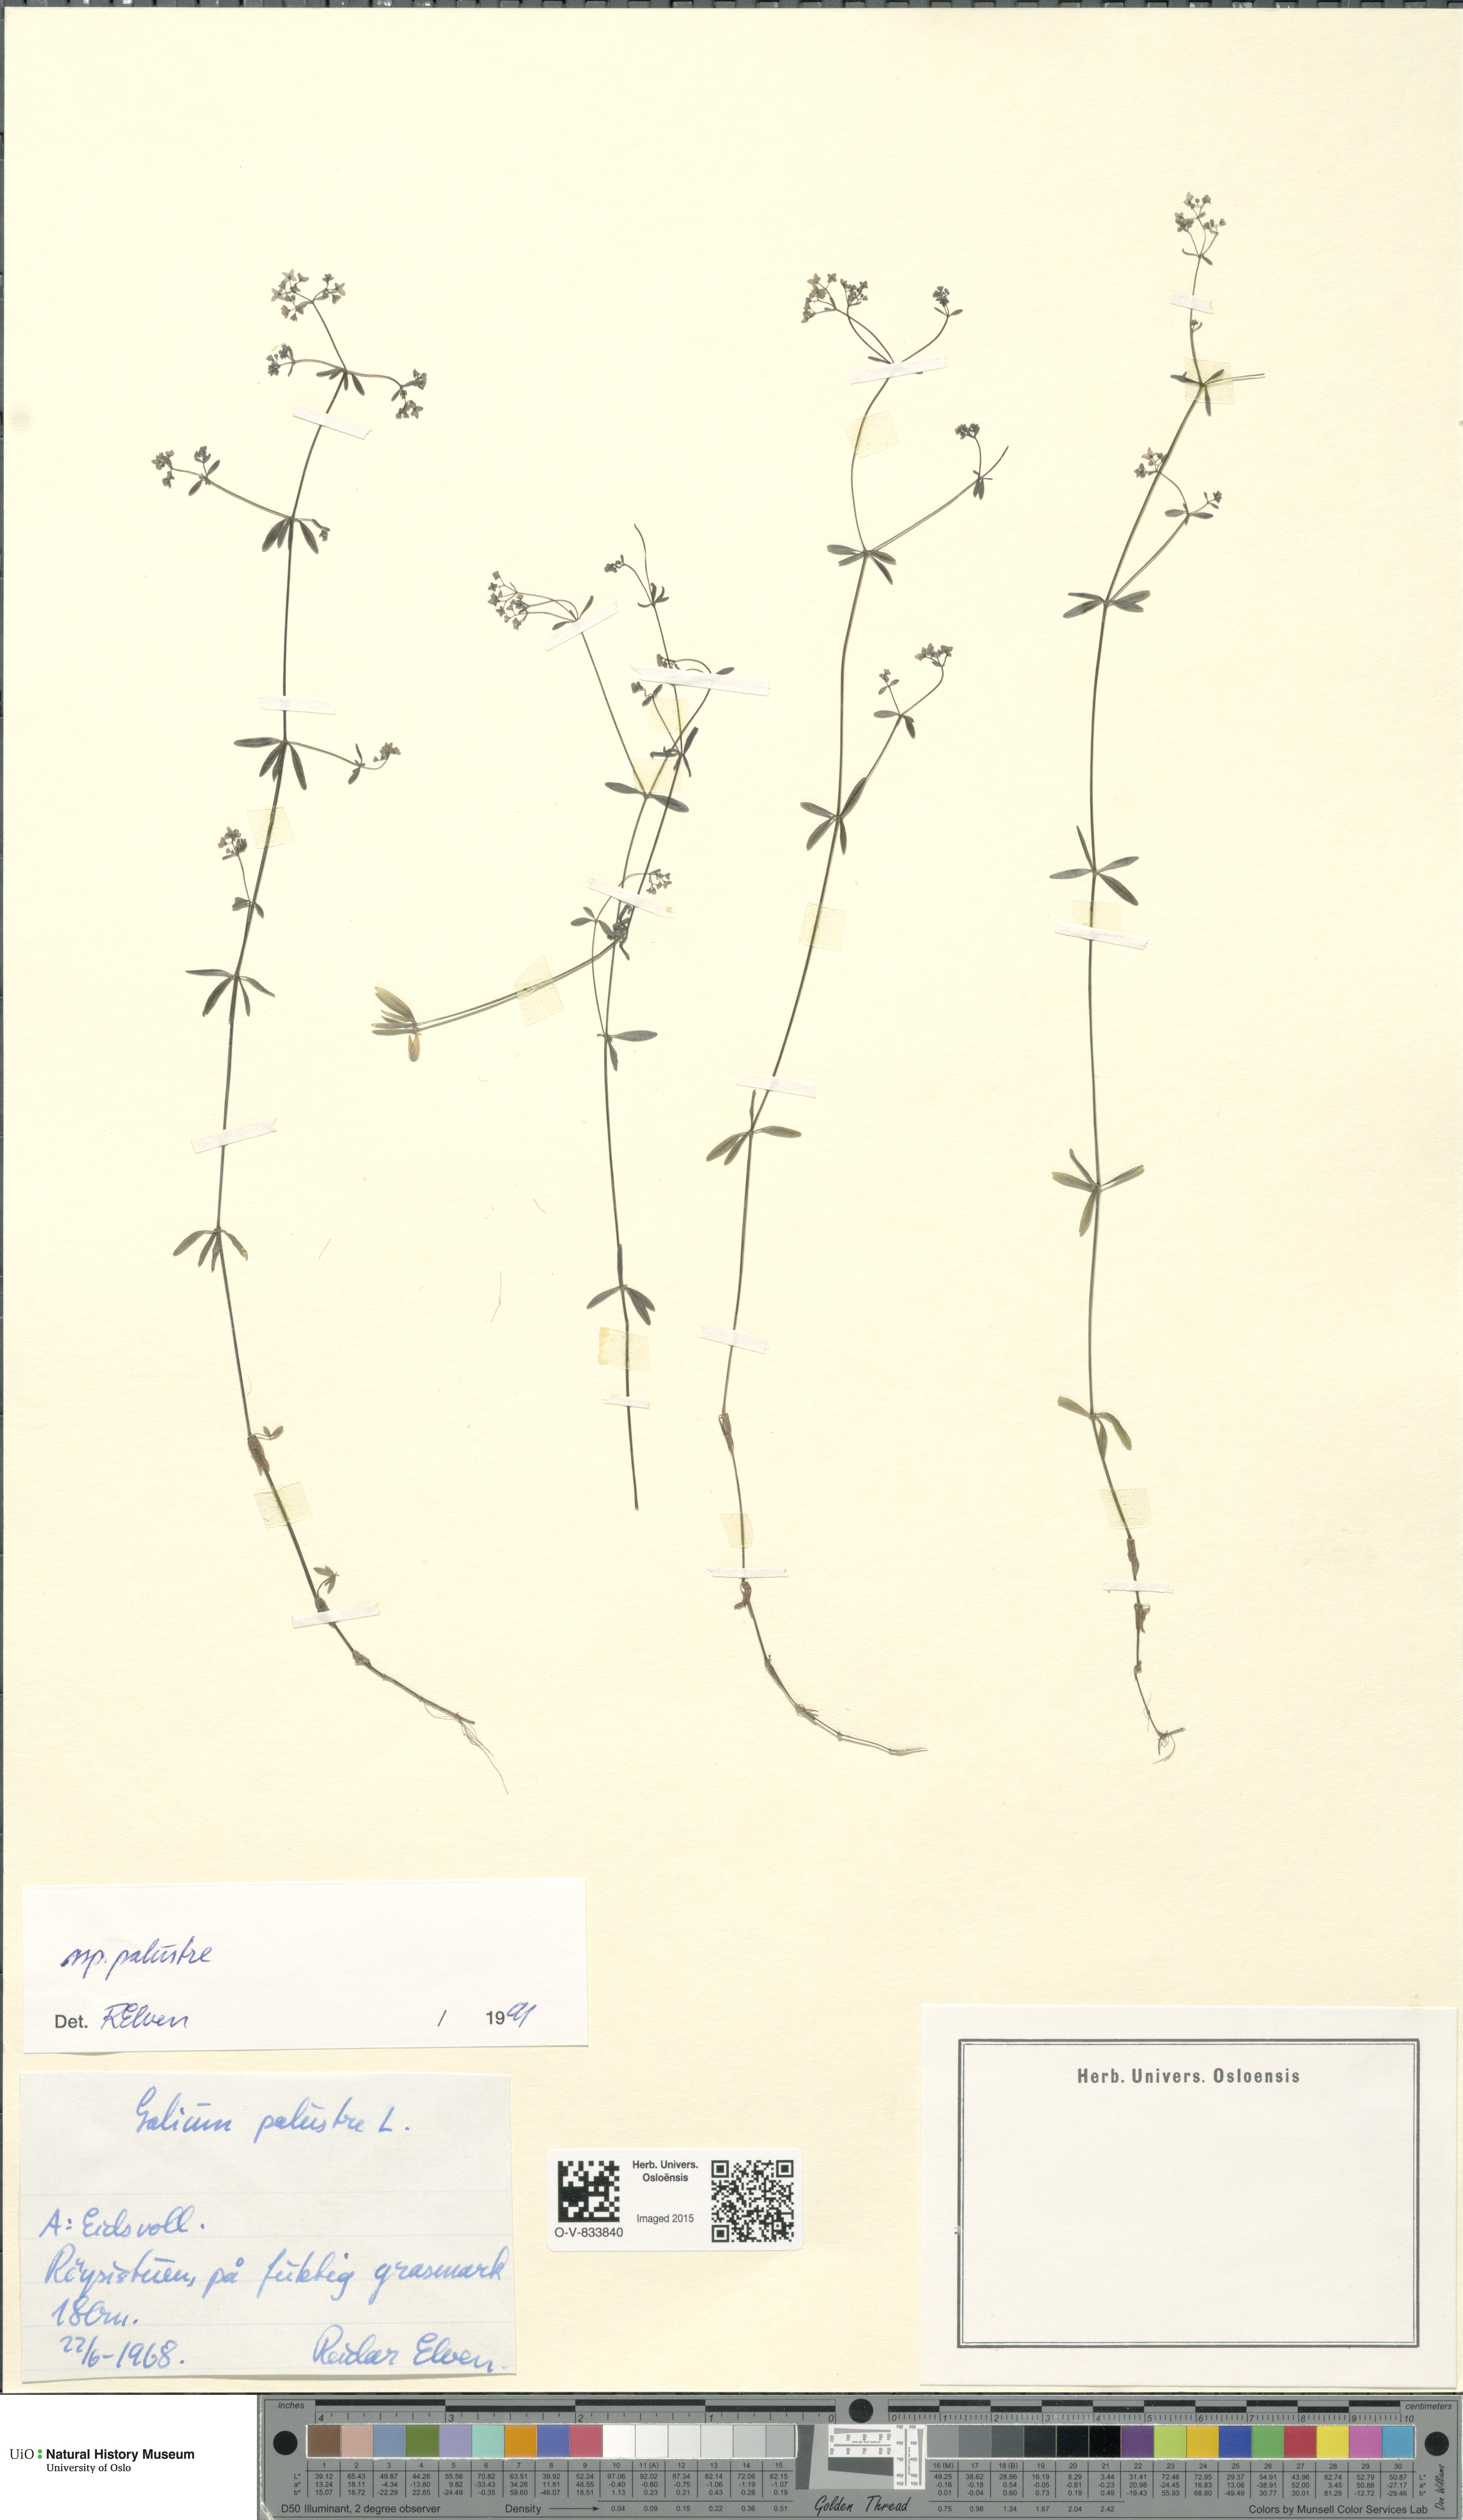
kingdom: Plantae
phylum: Tracheophyta
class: Magnoliopsida
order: Gentianales
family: Rubiaceae
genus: Galium
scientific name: Galium palustre
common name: Common marsh-bedstraw
